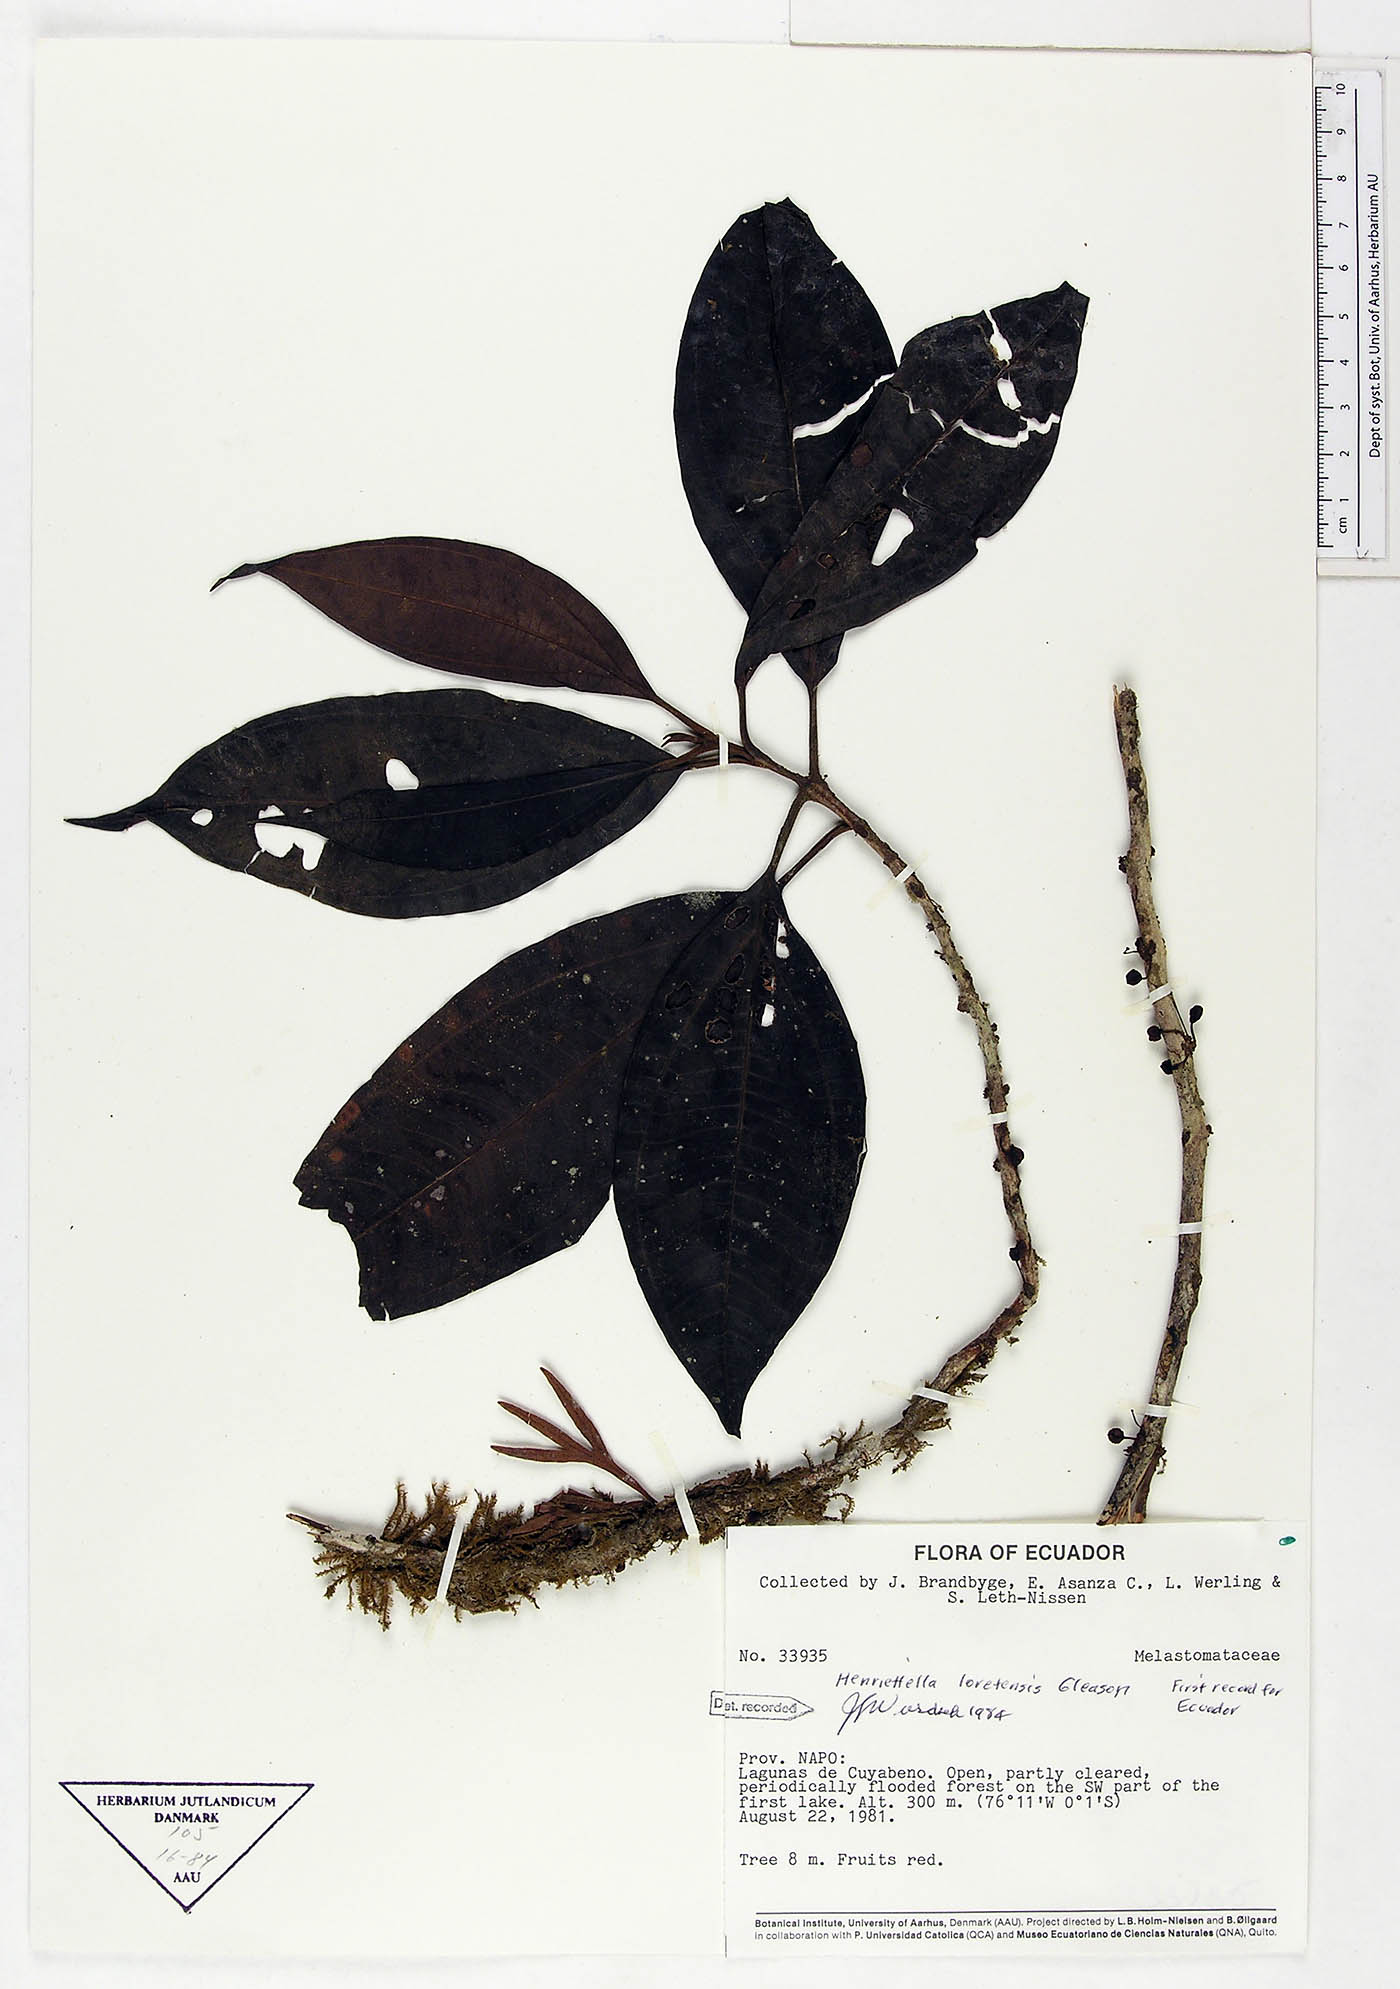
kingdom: Plantae
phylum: Tracheophyta
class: Magnoliopsida
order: Myrtales
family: Melastomataceae
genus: Henriettea
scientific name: Henriettea loretensis
